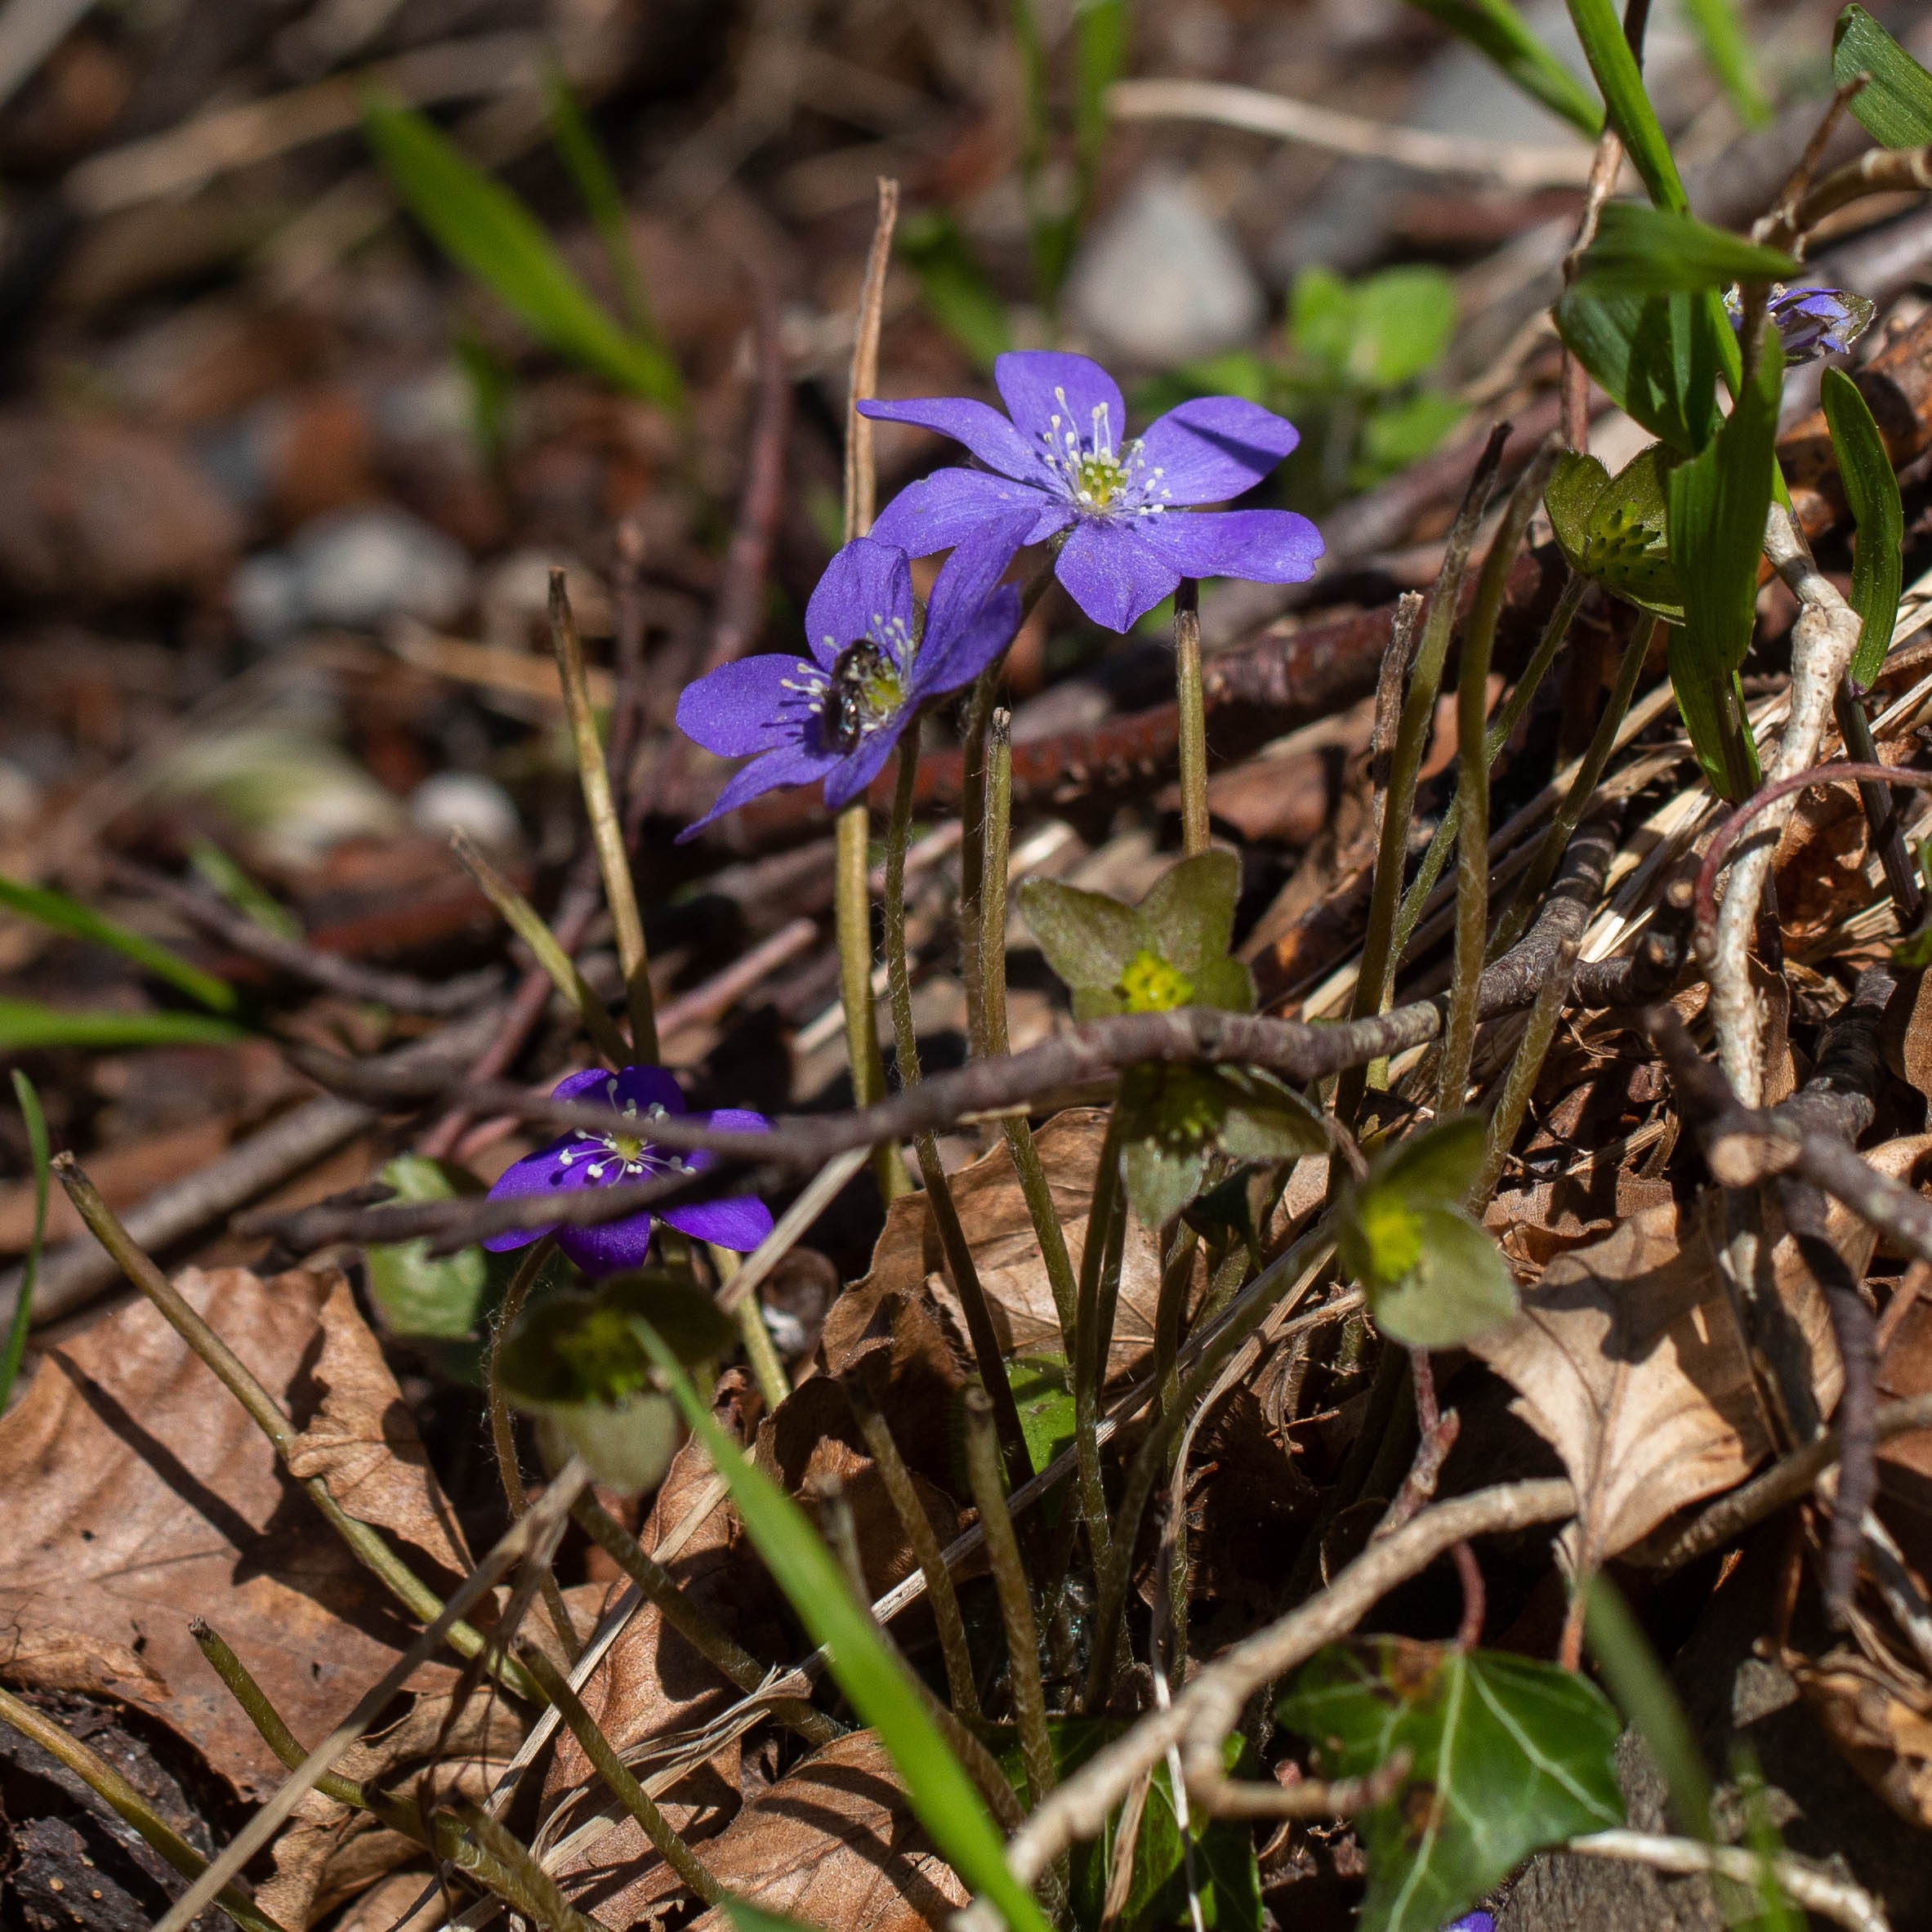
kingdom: Plantae
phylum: Tracheophyta
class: Magnoliopsida
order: Ranunculales
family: Ranunculaceae
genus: Hepatica
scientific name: Hepatica nobilis
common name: Blå anemone
